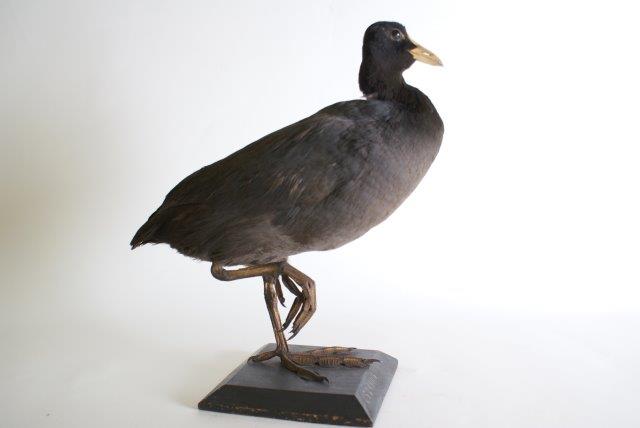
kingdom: Animalia
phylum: Chordata
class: Aves
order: Gruiformes
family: Rallidae
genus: Fulica
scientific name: Fulica atra
